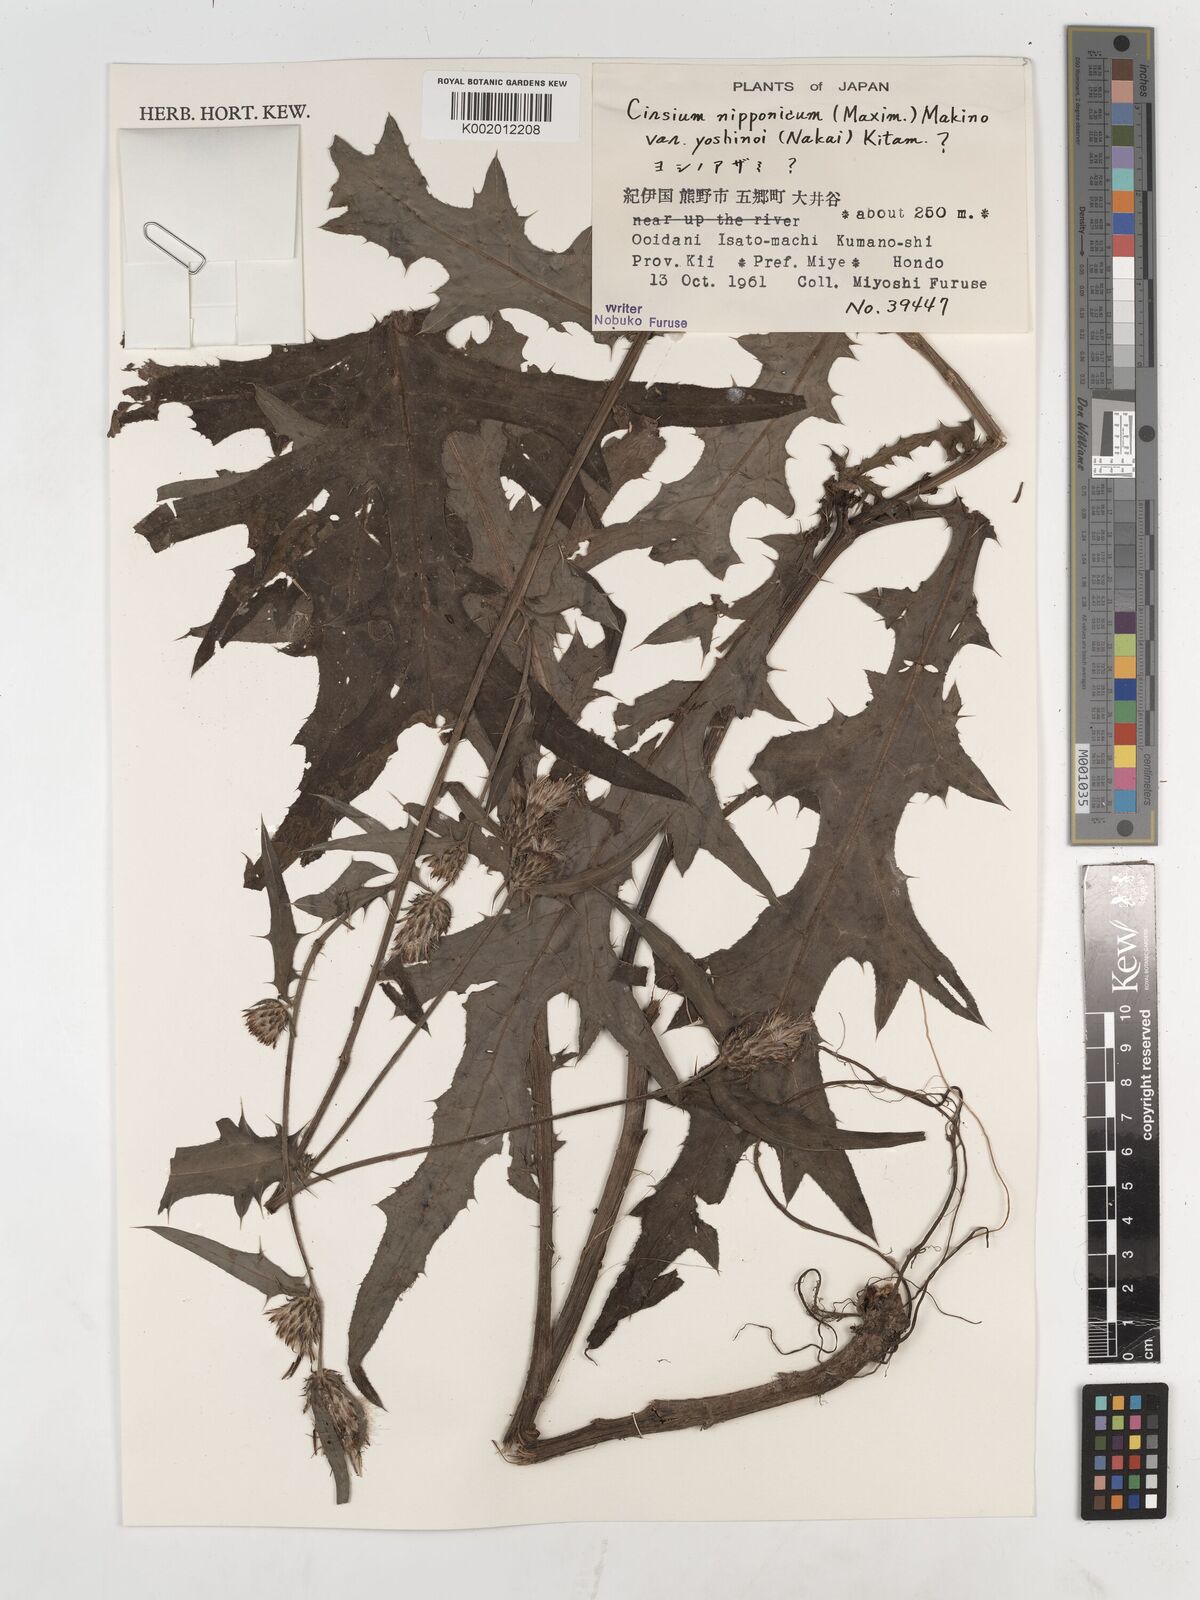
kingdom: Plantae
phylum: Tracheophyta
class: Magnoliopsida
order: Asterales
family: Asteraceae
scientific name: Asteraceae
